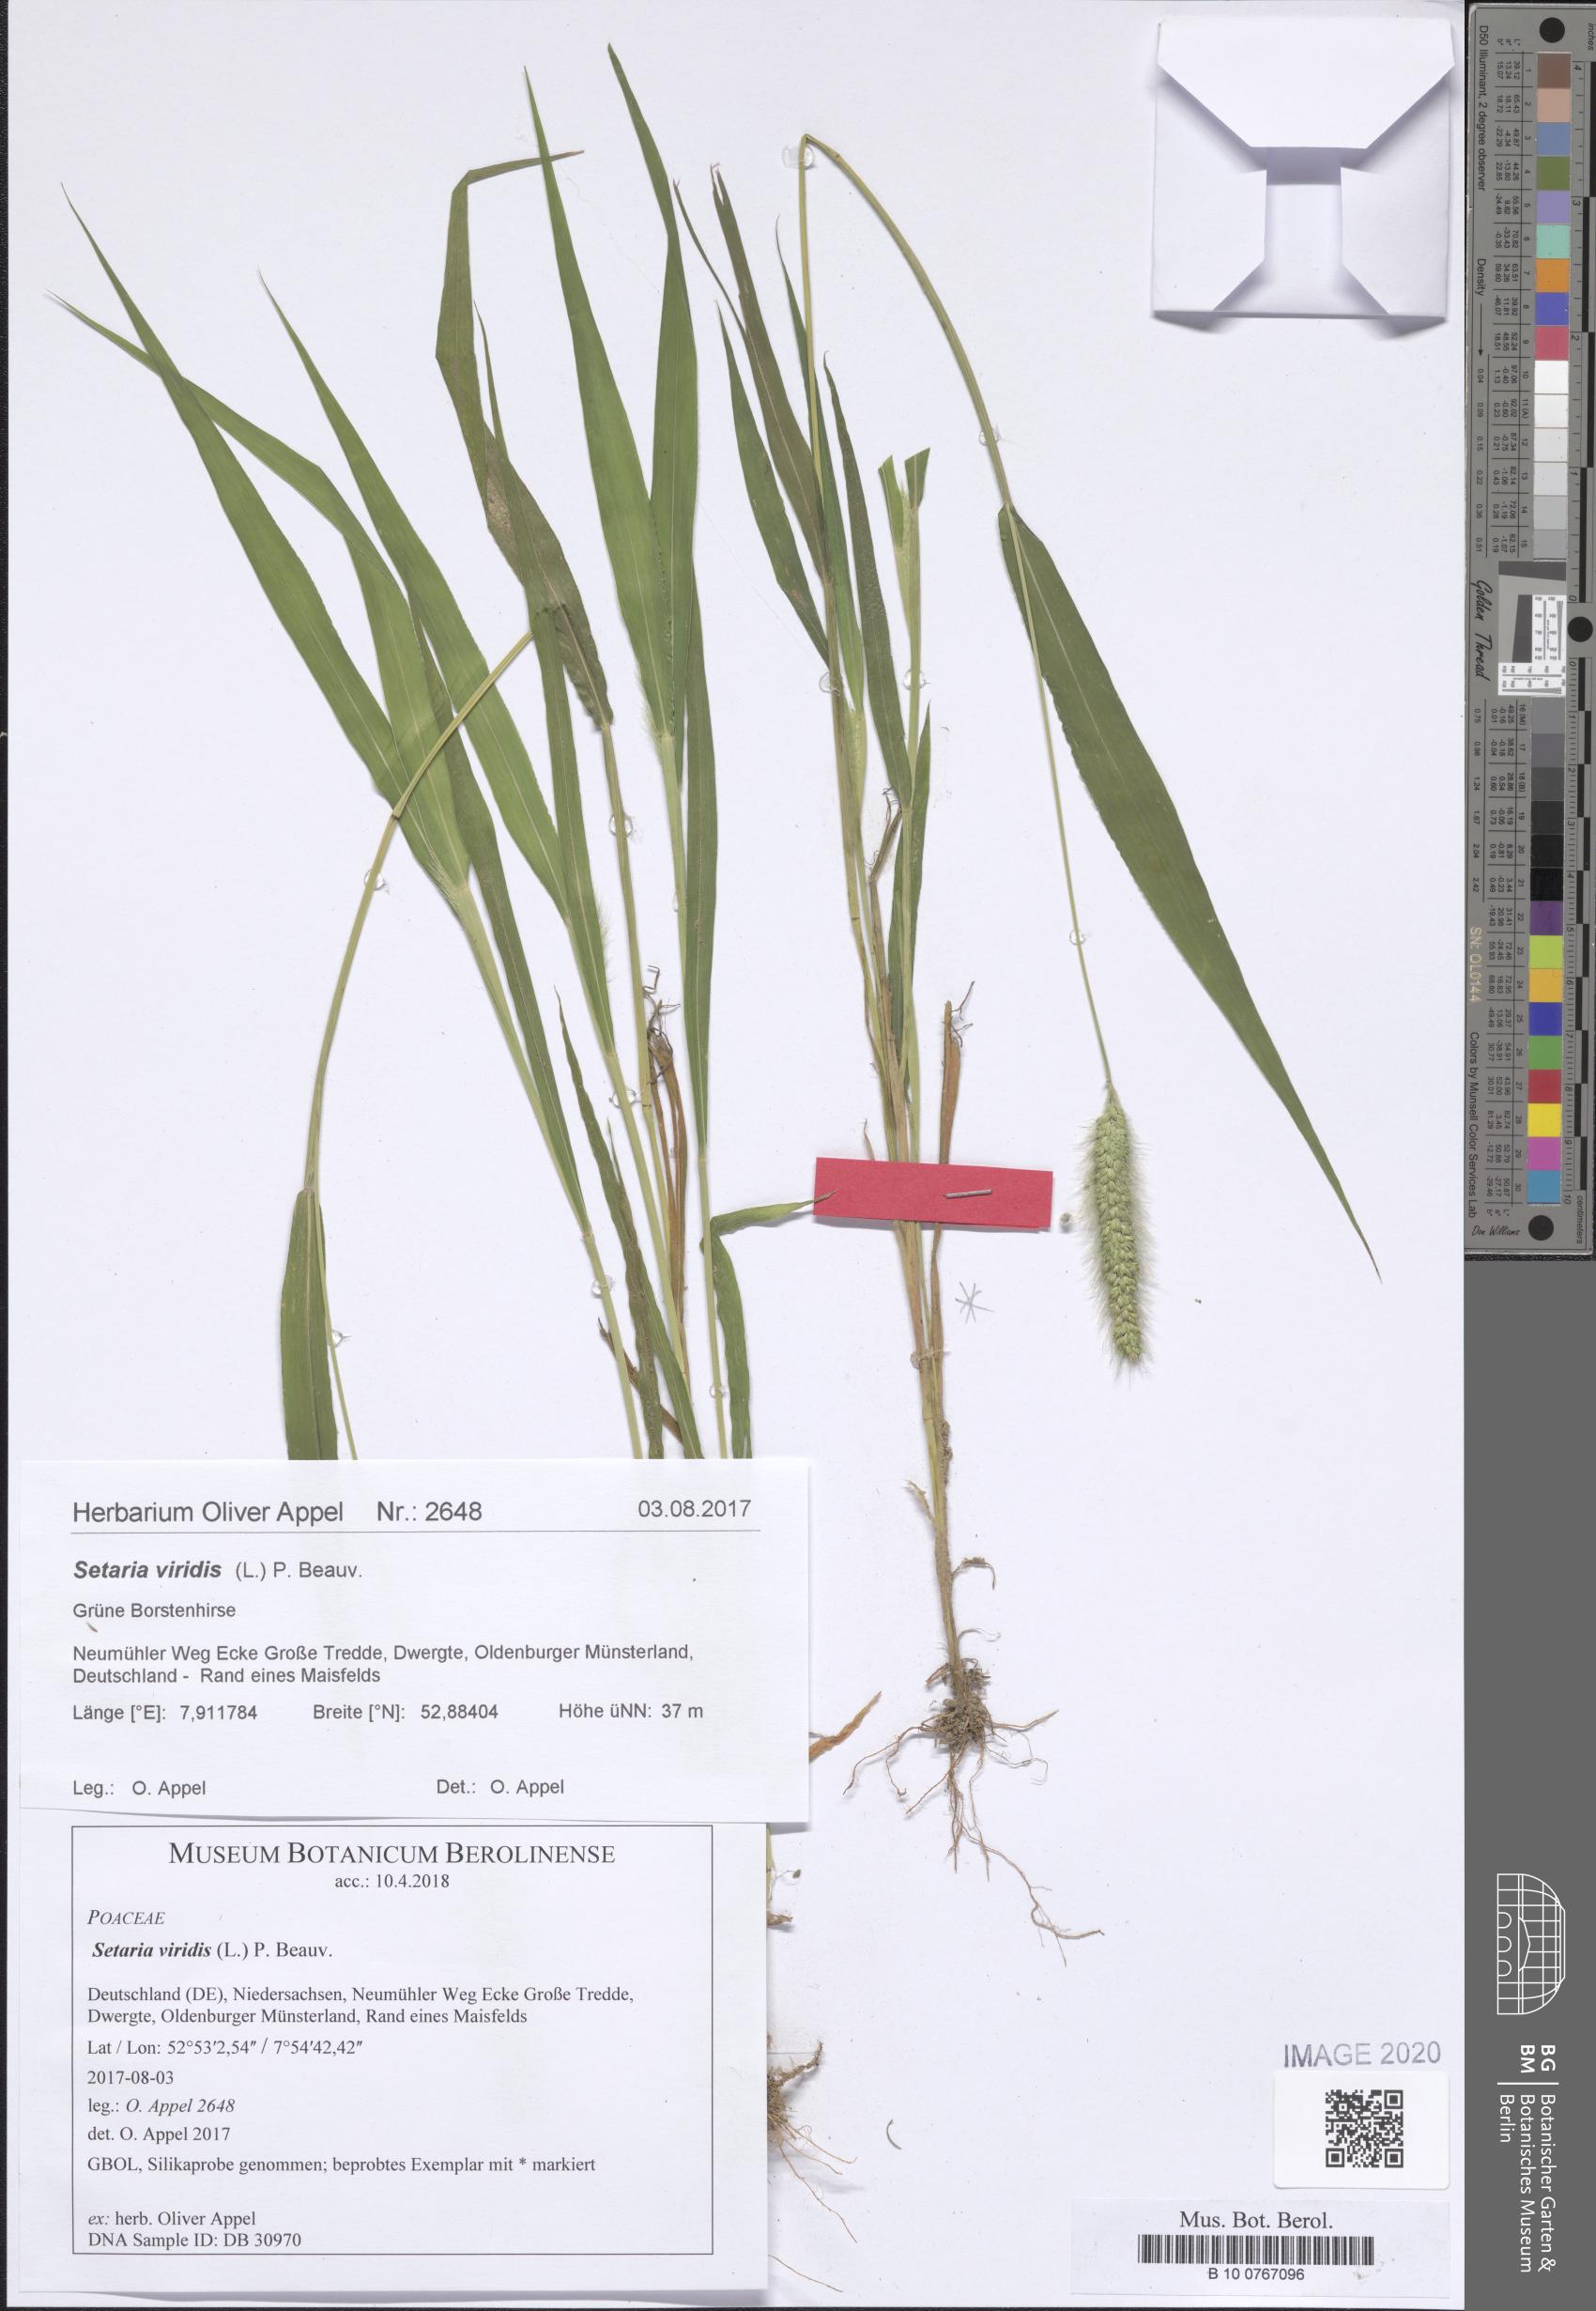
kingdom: Plantae
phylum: Tracheophyta
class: Liliopsida
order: Poales
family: Poaceae
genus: Setaria
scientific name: Setaria viridis
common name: Green bristlegrass
